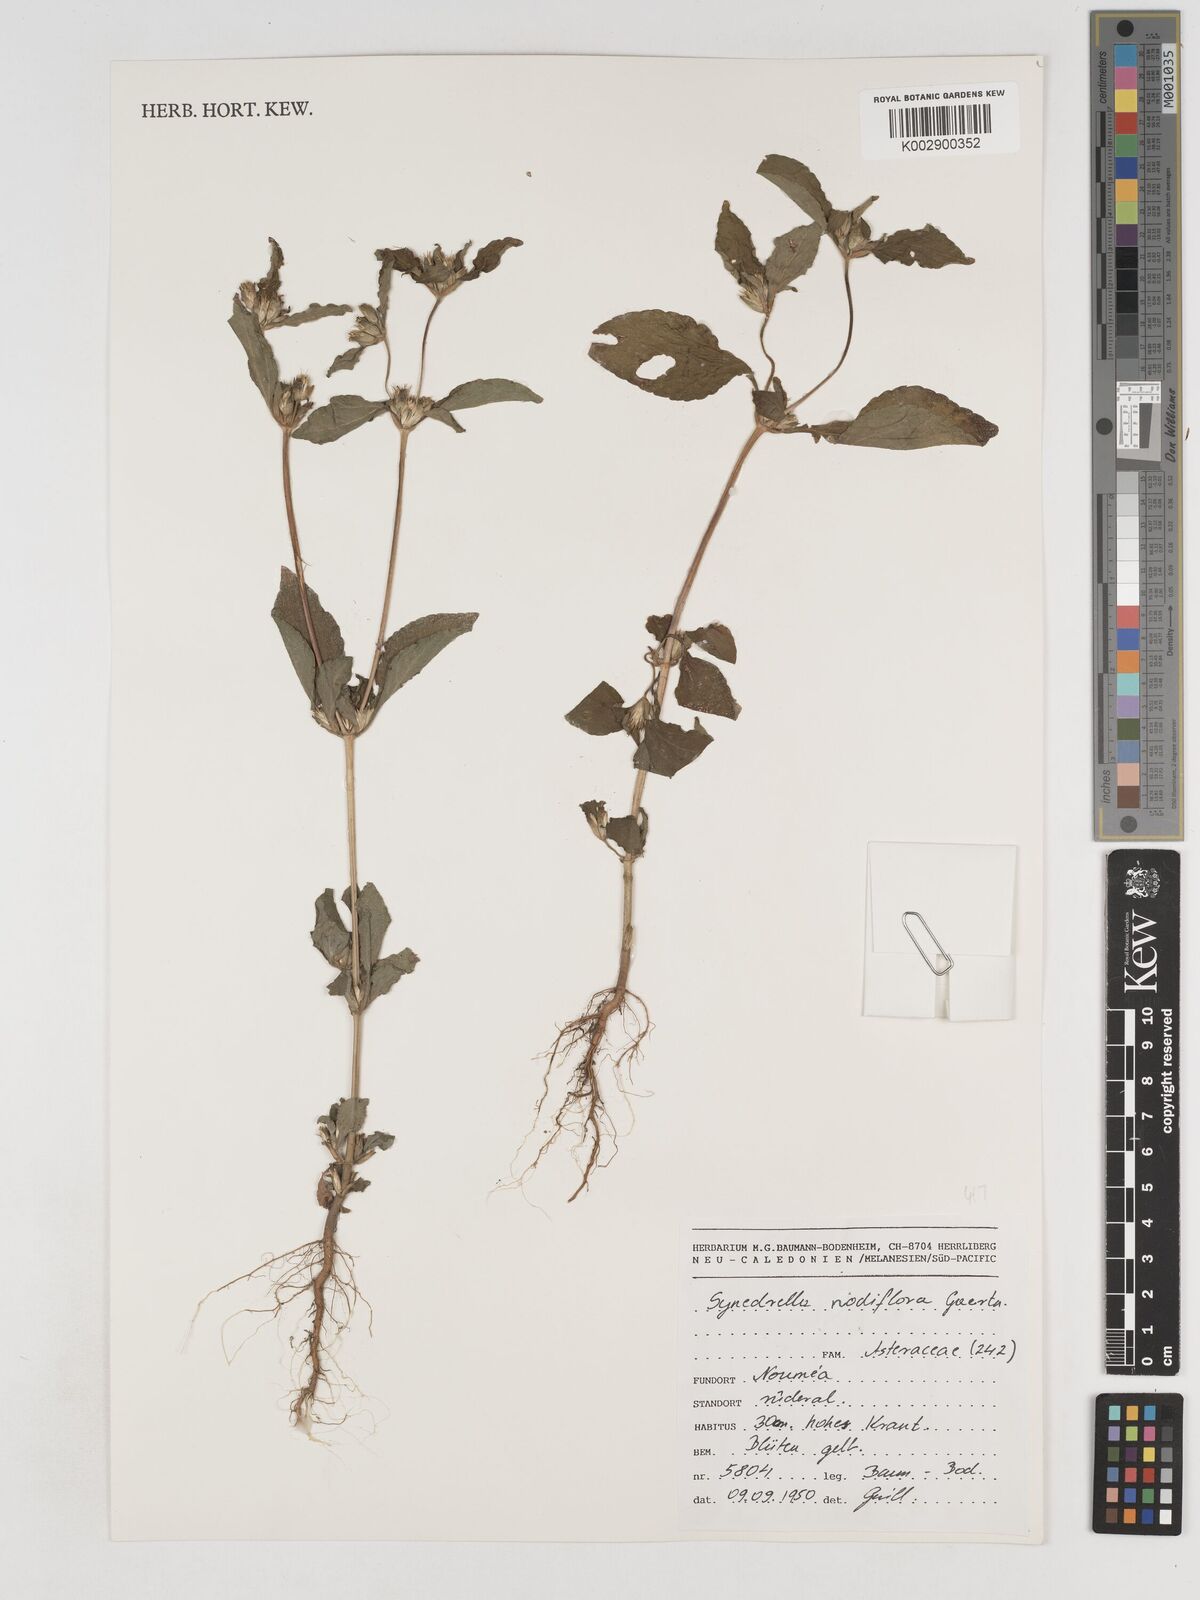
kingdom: Plantae
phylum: Tracheophyta
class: Magnoliopsida
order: Asterales
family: Asteraceae
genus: Synedrella
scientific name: Synedrella nodiflora
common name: Nodeweed
